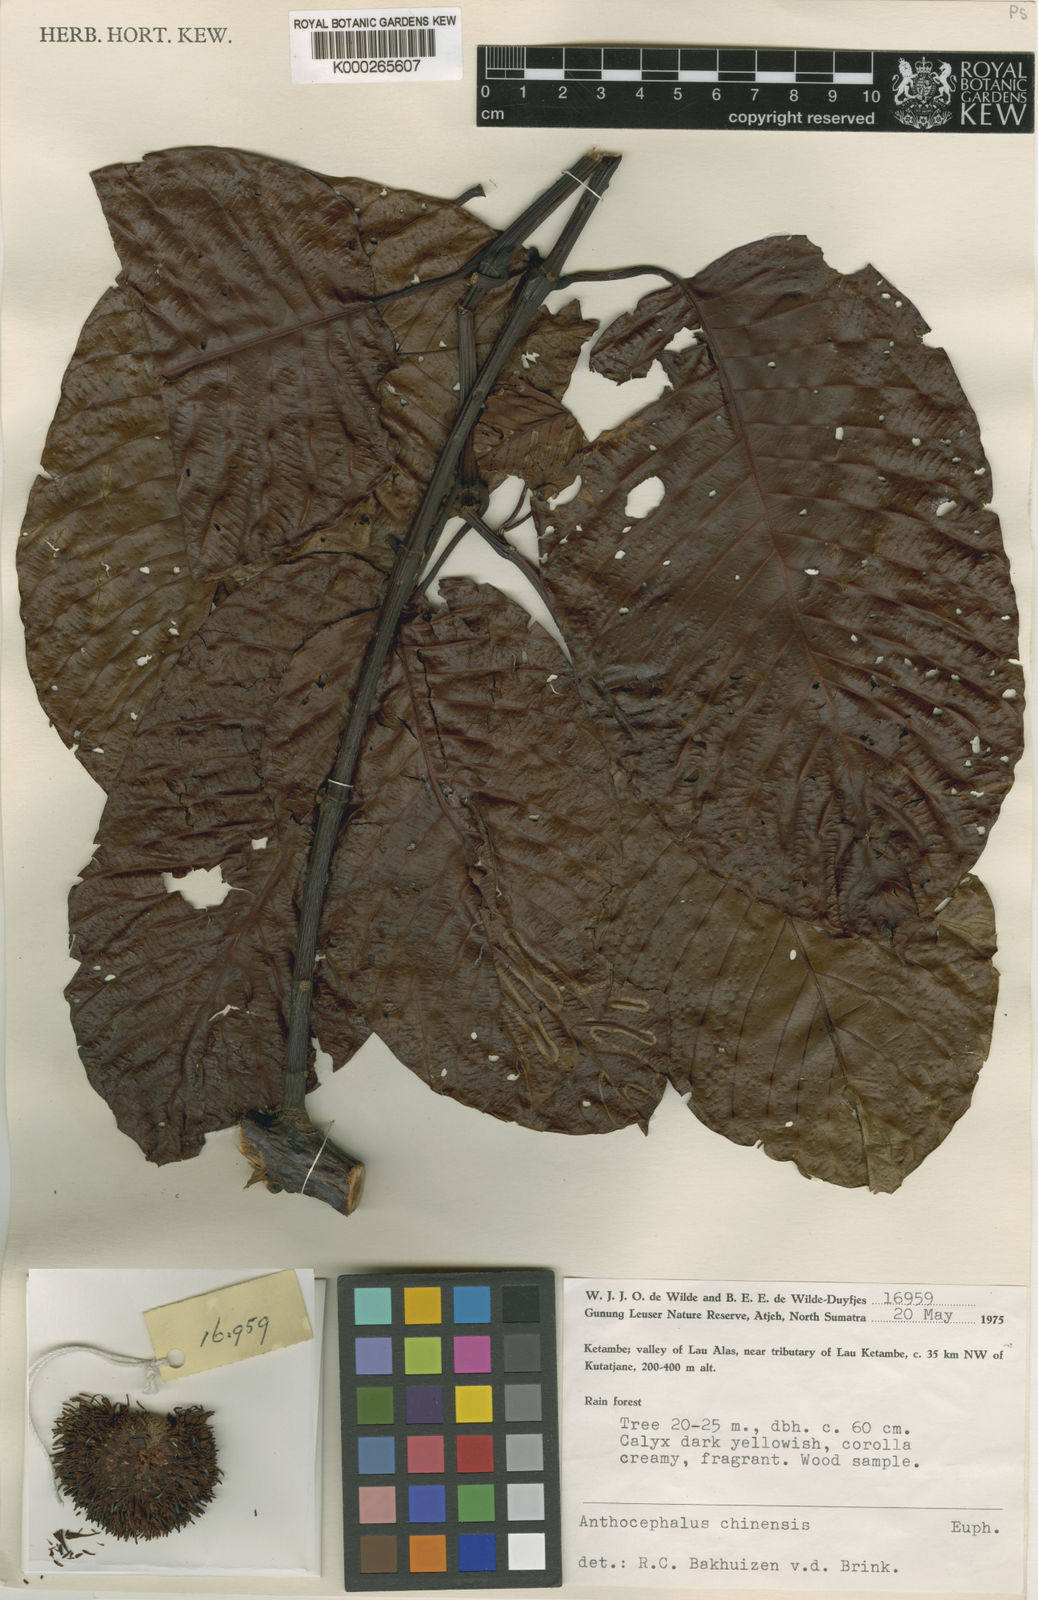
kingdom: Plantae
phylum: Tracheophyta
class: Magnoliopsida
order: Gentianales
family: Rubiaceae
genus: Neolamarckia
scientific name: Neolamarckia cadamba
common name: Leichhardt-pine
